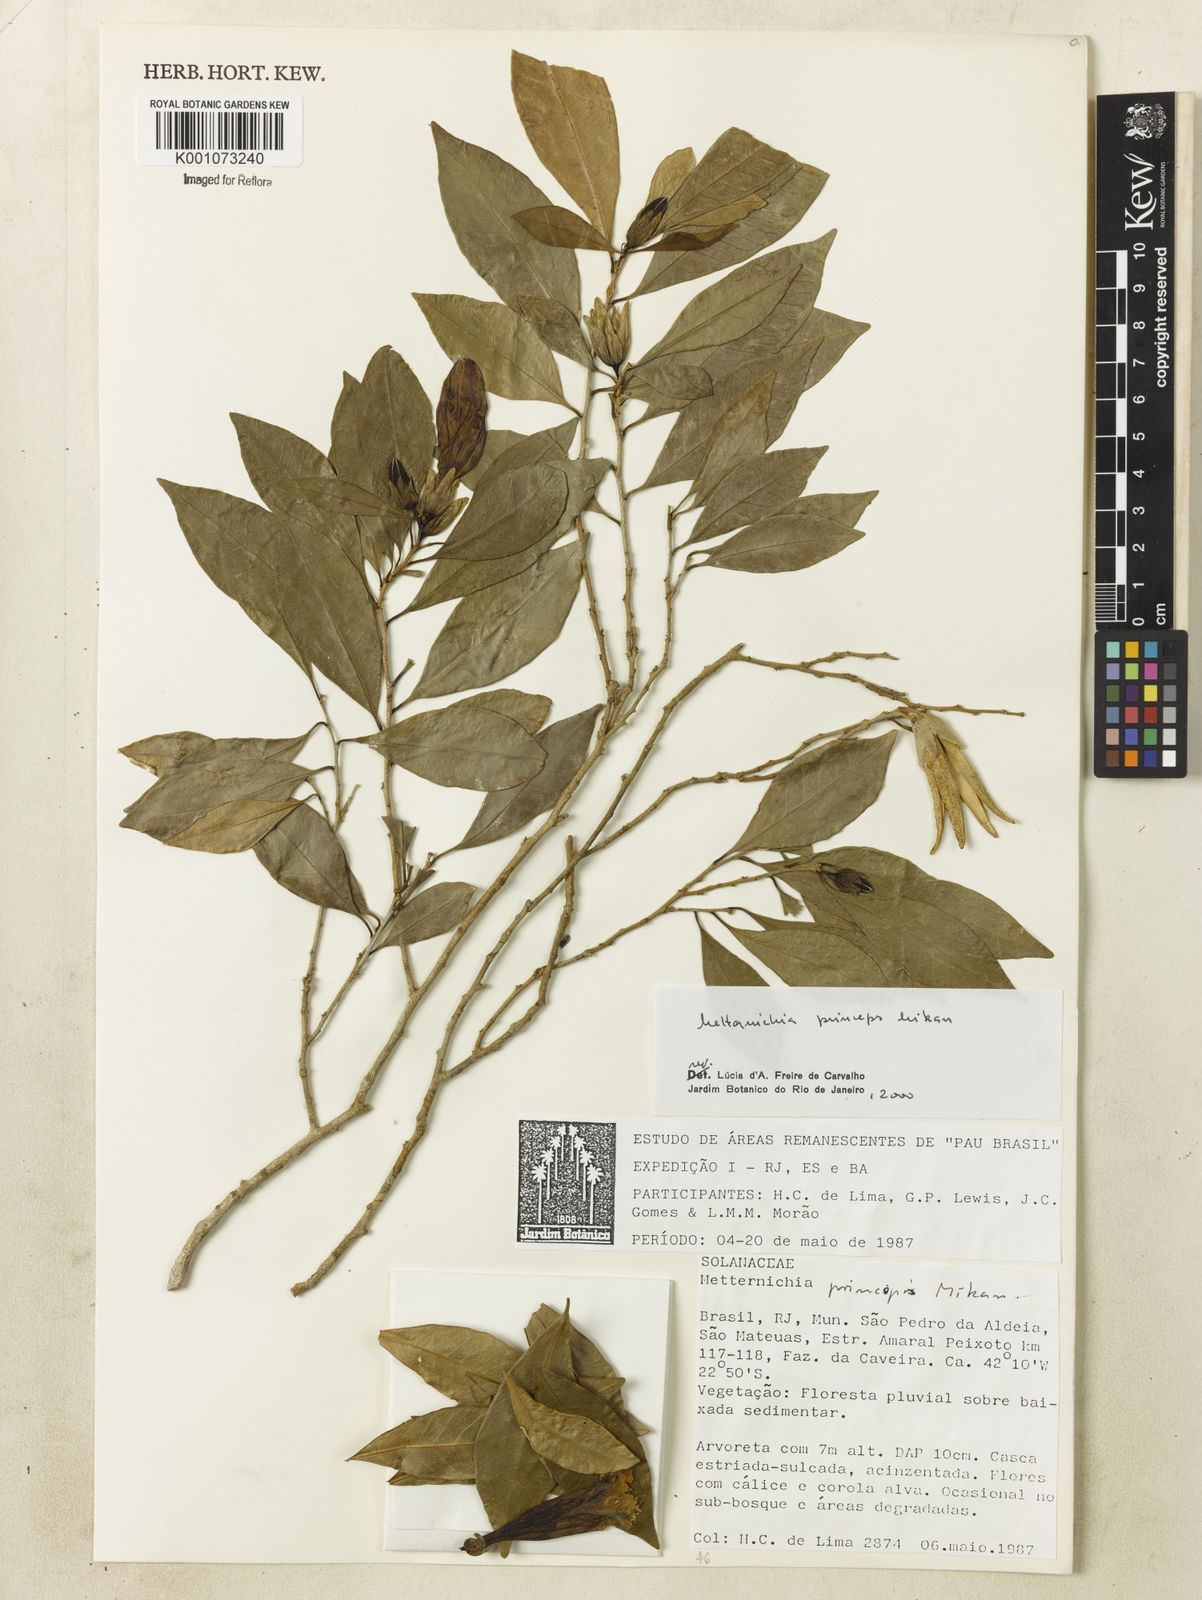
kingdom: Plantae
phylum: Tracheophyta
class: Magnoliopsida
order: Solanales
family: Solanaceae
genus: Metternichia
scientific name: Metternichia
